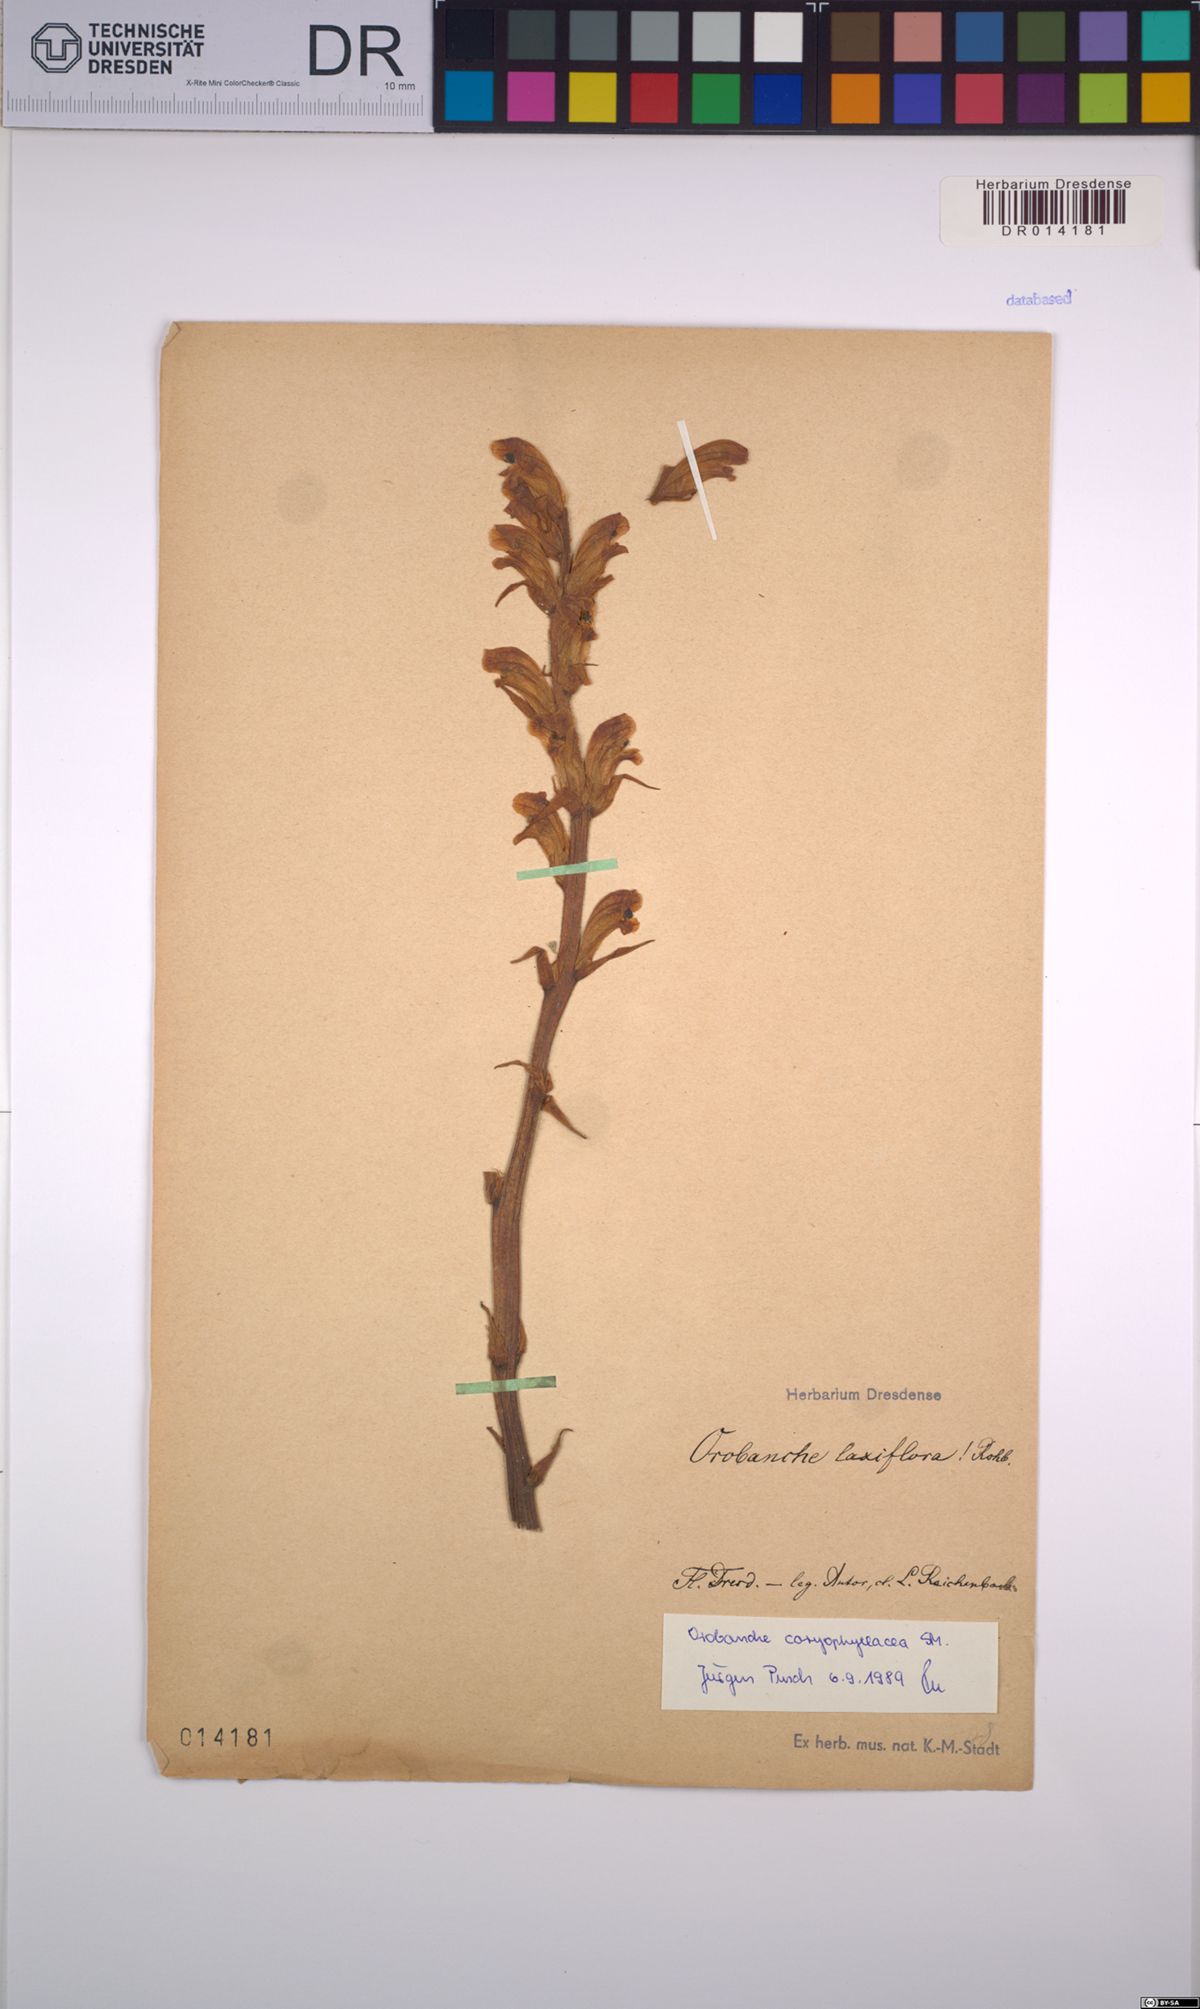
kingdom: Plantae
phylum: Tracheophyta
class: Magnoliopsida
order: Lamiales
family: Orobanchaceae
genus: Orobanche
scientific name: Orobanche caryophyllacea
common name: Bedstraw broomrape
